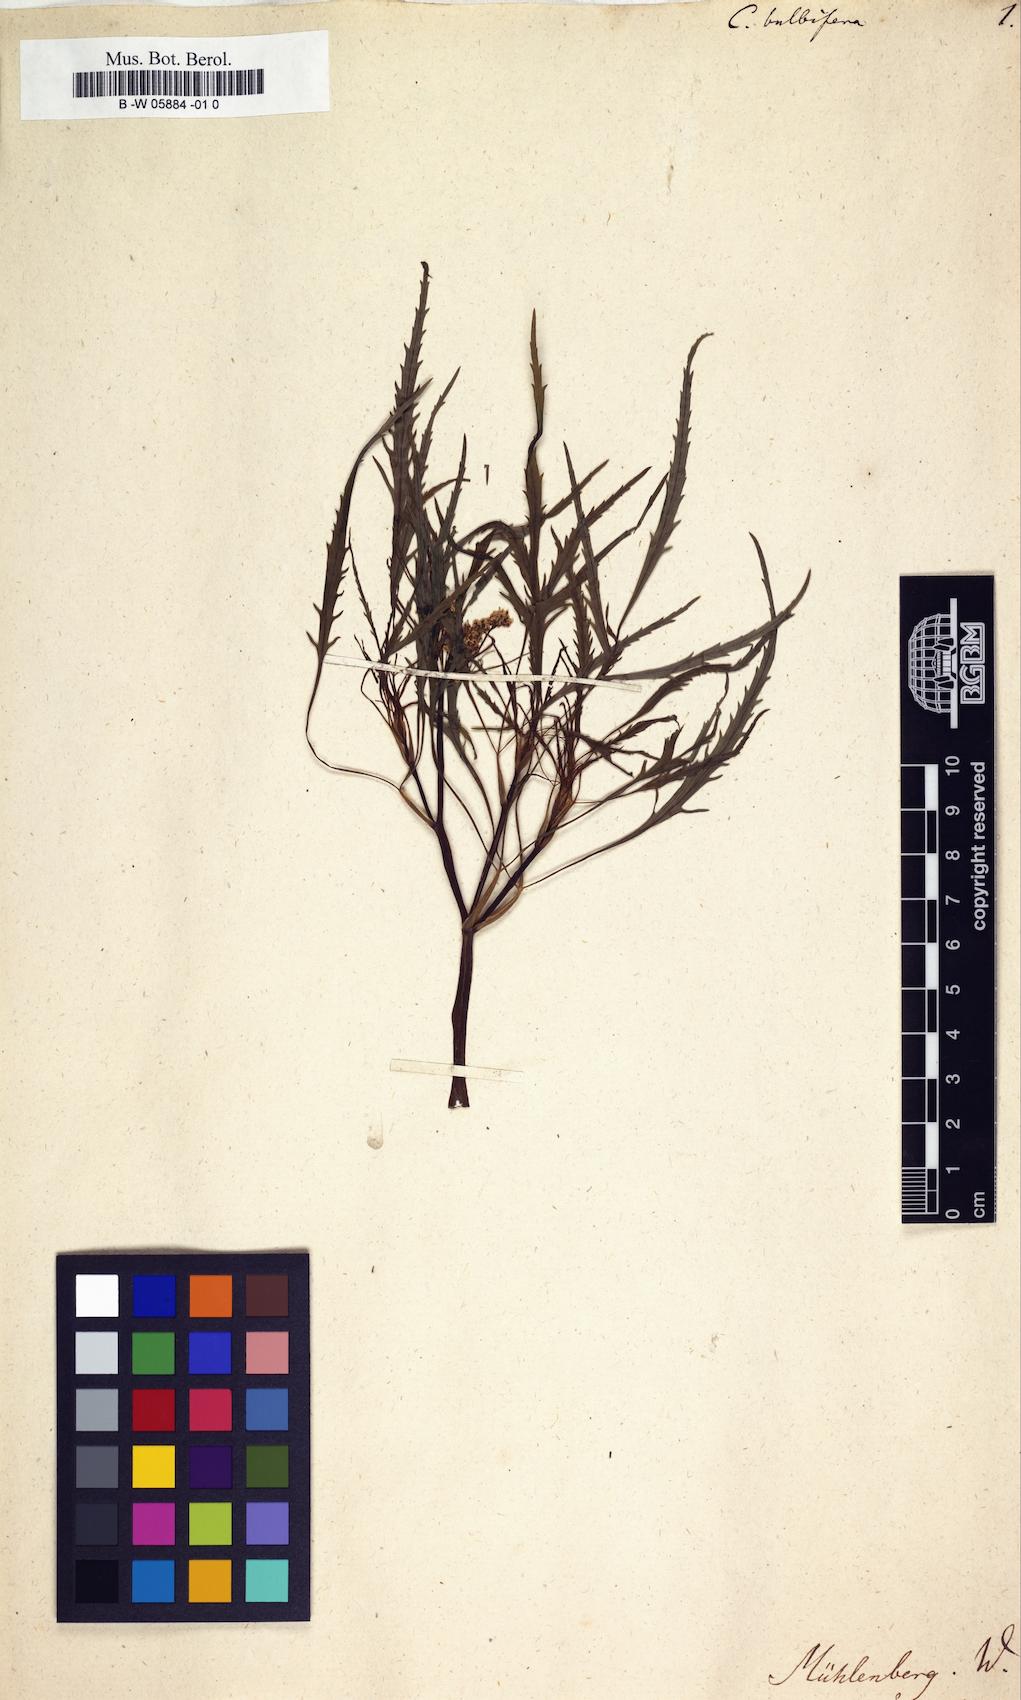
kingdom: Plantae
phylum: Tracheophyta
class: Magnoliopsida
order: Apiales
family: Apiaceae
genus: Cicuta
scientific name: Cicuta bulbifera
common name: Bulb-bearing water-hemlock
